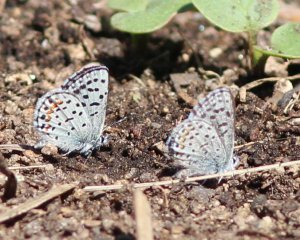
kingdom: Animalia
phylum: Arthropoda
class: Insecta
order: Lepidoptera
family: Lycaenidae
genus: Euphilotes
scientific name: Euphilotes
